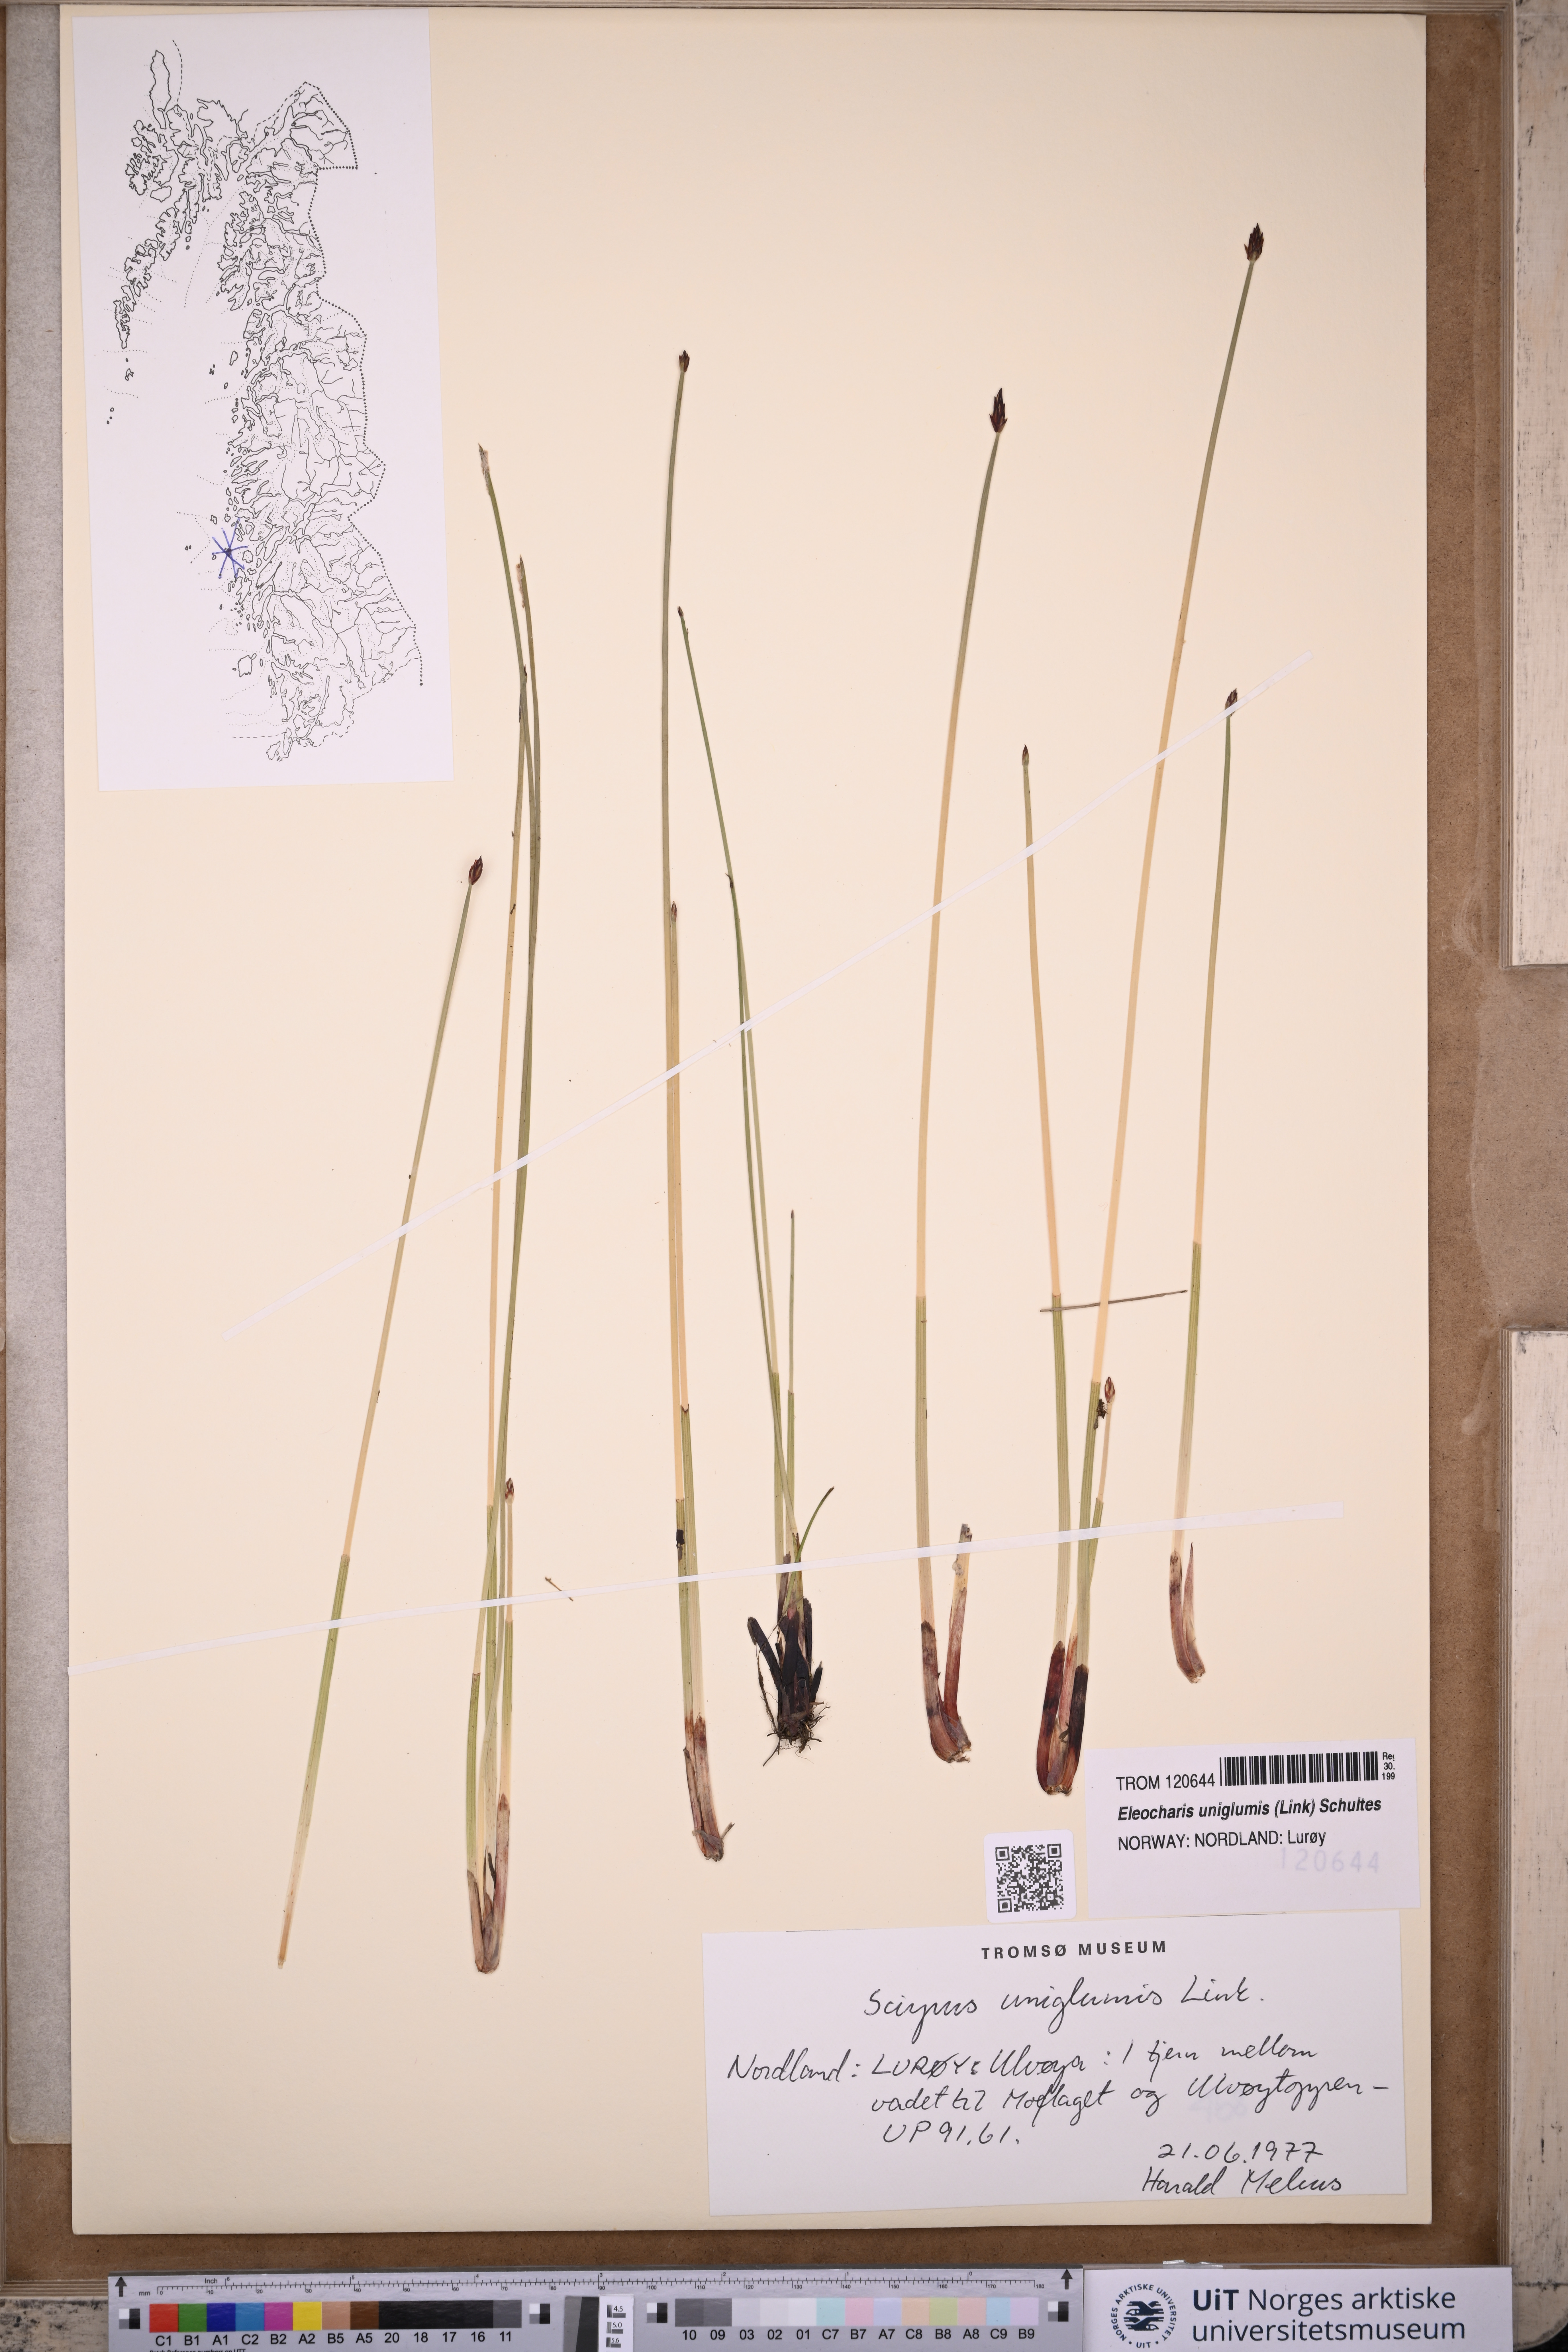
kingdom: Plantae
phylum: Tracheophyta
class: Liliopsida
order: Poales
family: Cyperaceae
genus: Eleocharis
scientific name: Eleocharis uniglumis
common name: Slender spike-rush
